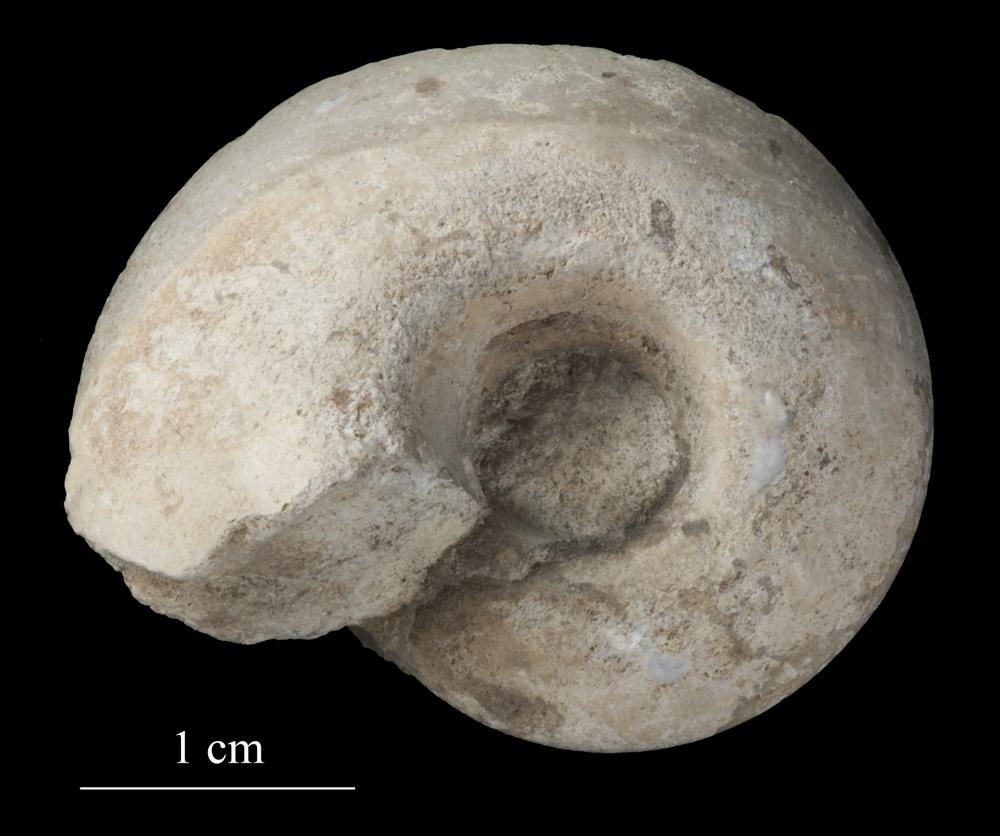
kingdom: Animalia
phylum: Mollusca
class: Gastropoda
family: Lesueurillidae
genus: Pararaphistoma
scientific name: Pararaphistoma Helicites qualteriata
